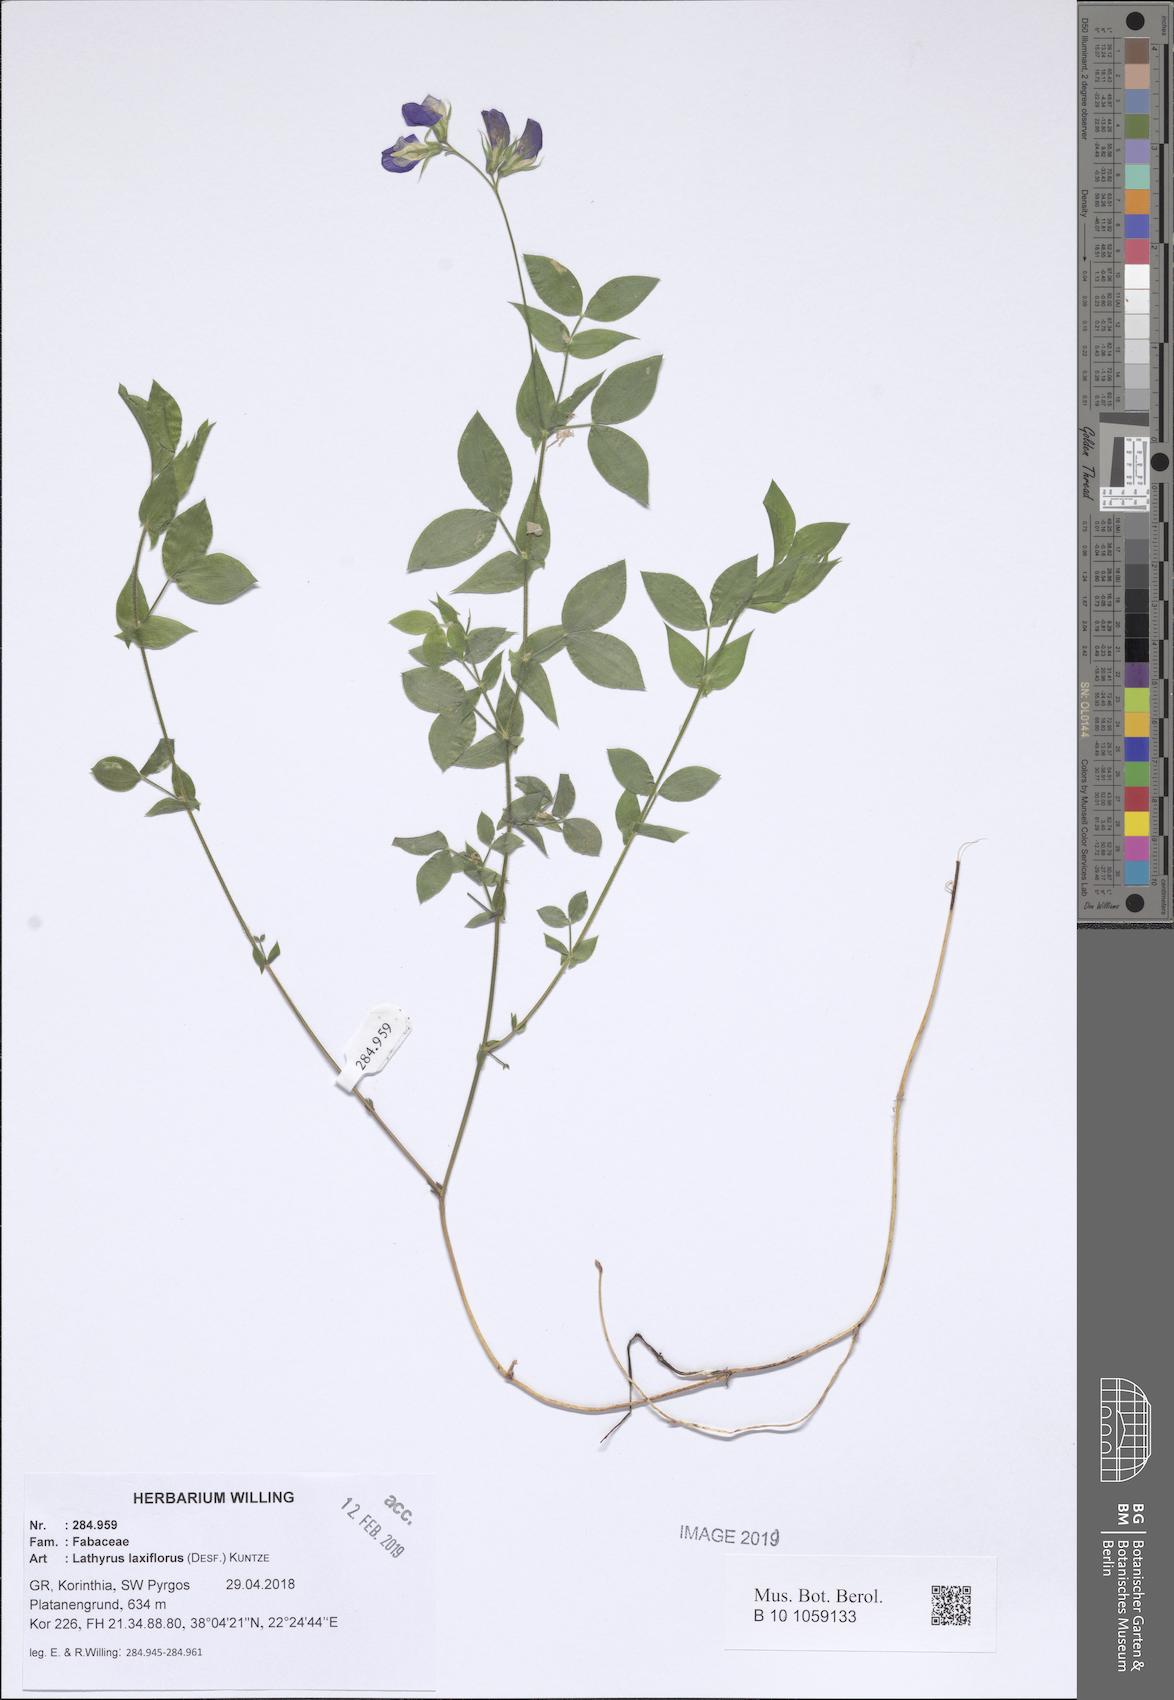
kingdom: Plantae
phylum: Tracheophyta
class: Magnoliopsida
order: Fabales
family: Fabaceae
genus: Lathyrus
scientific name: Lathyrus laxiflorus
